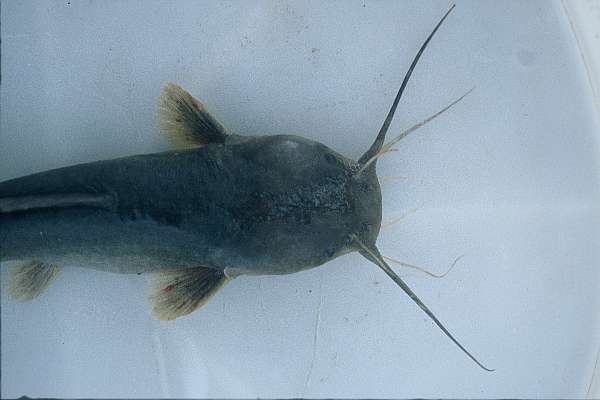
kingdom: Animalia
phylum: Chordata
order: Siluriformes
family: Clariidae
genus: Clariallabes
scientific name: Clariallabes
